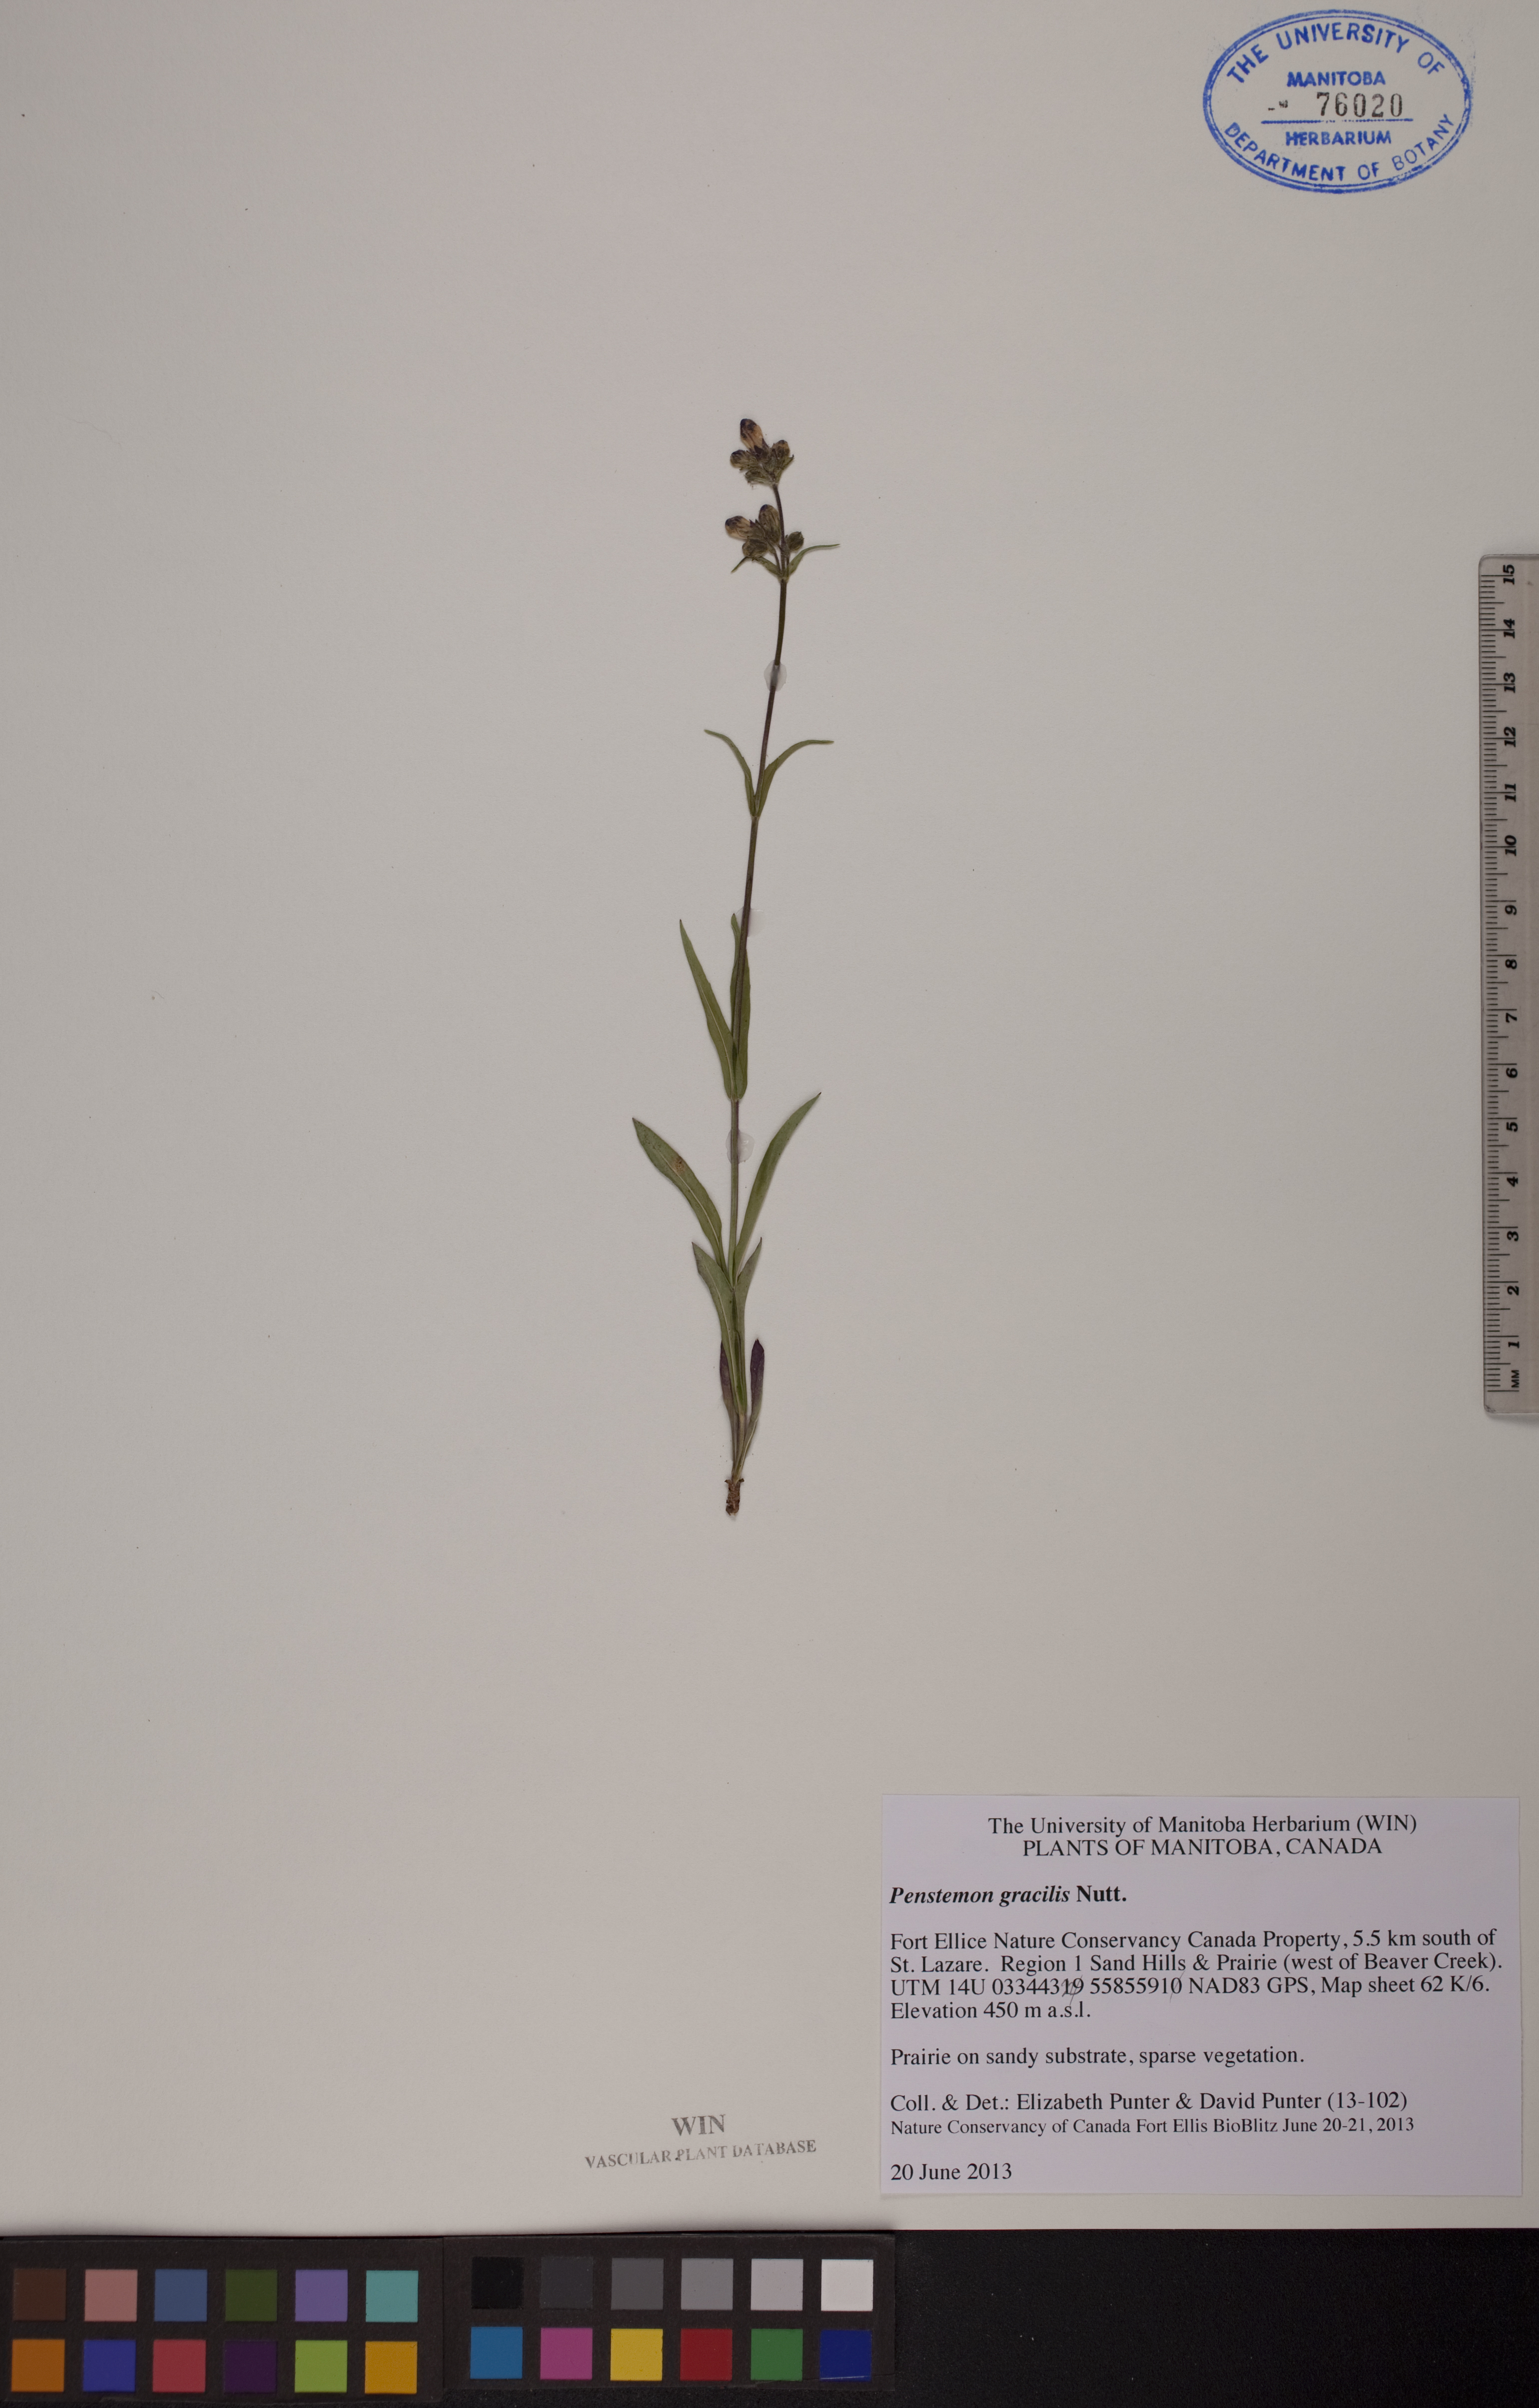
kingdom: Plantae
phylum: Tracheophyta
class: Magnoliopsida
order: Lamiales
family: Plantaginaceae
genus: Penstemon
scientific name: Penstemon gracilis
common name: Slender beardtongue
